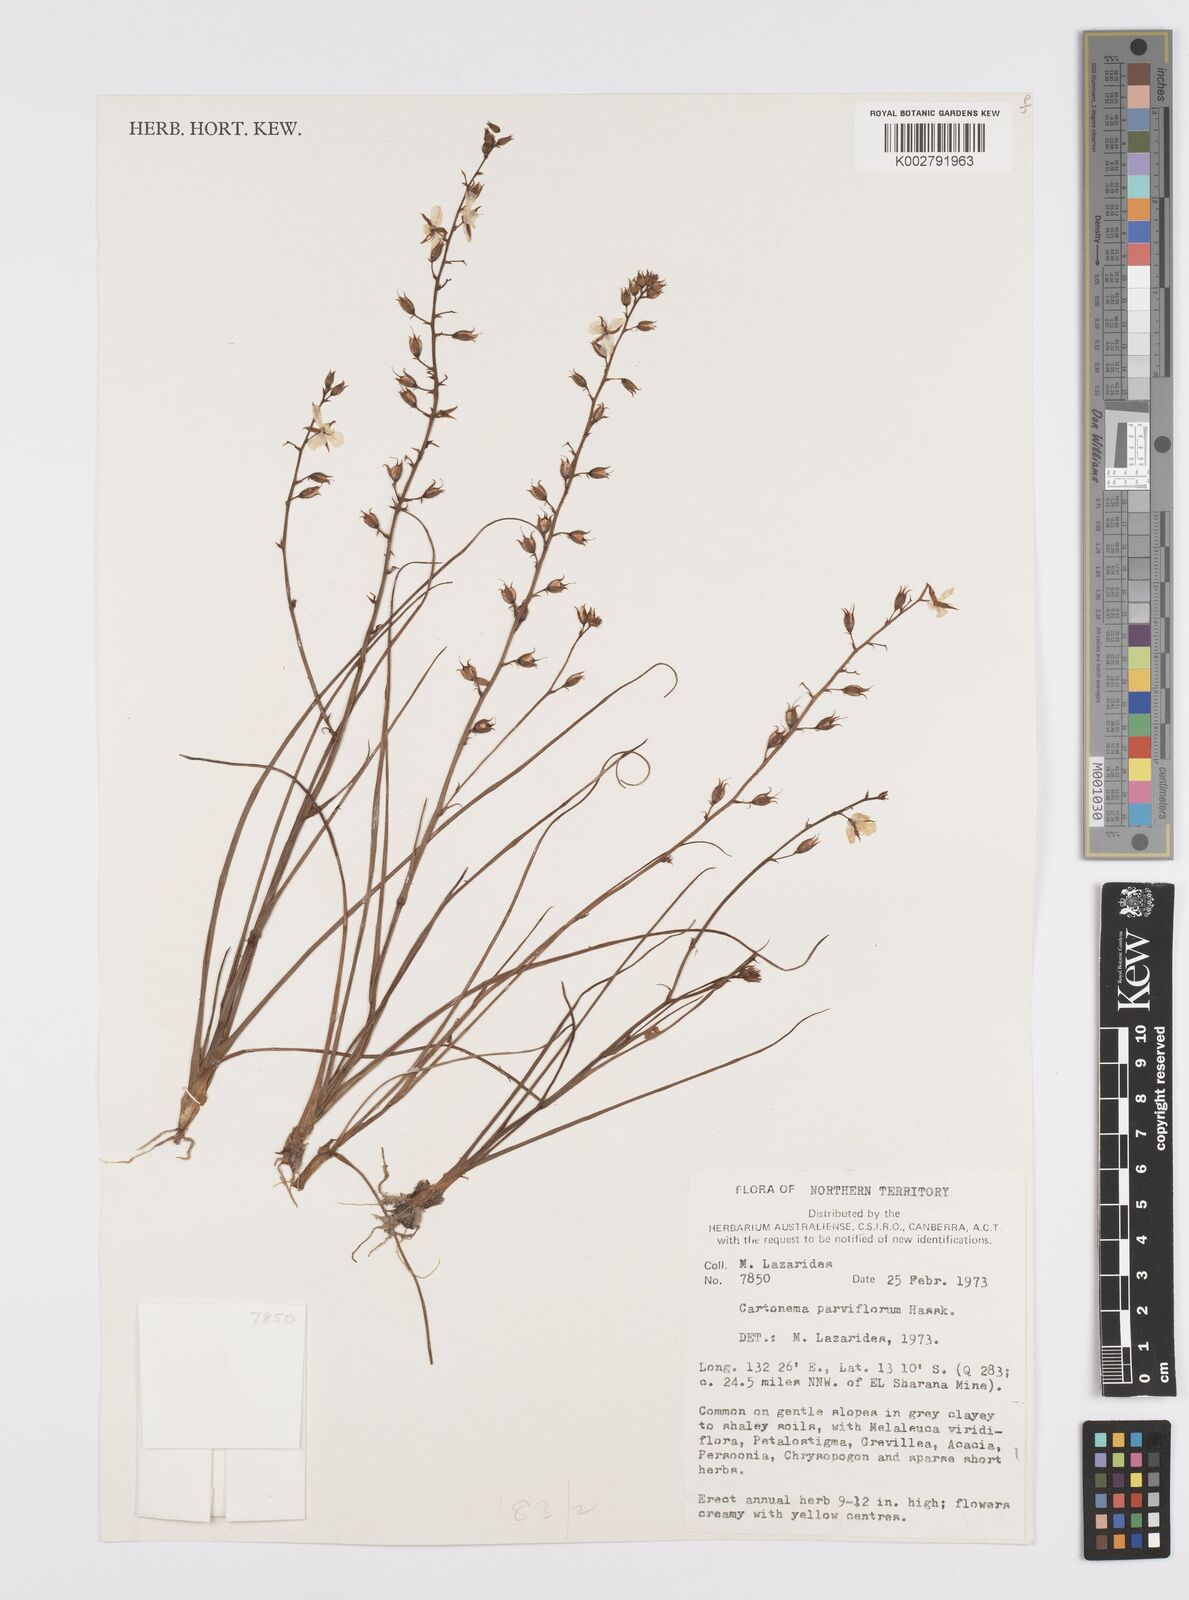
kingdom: Plantae
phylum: Tracheophyta
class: Liliopsida
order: Commelinales
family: Commelinaceae
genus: Cartonema
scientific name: Cartonema parviflorum
